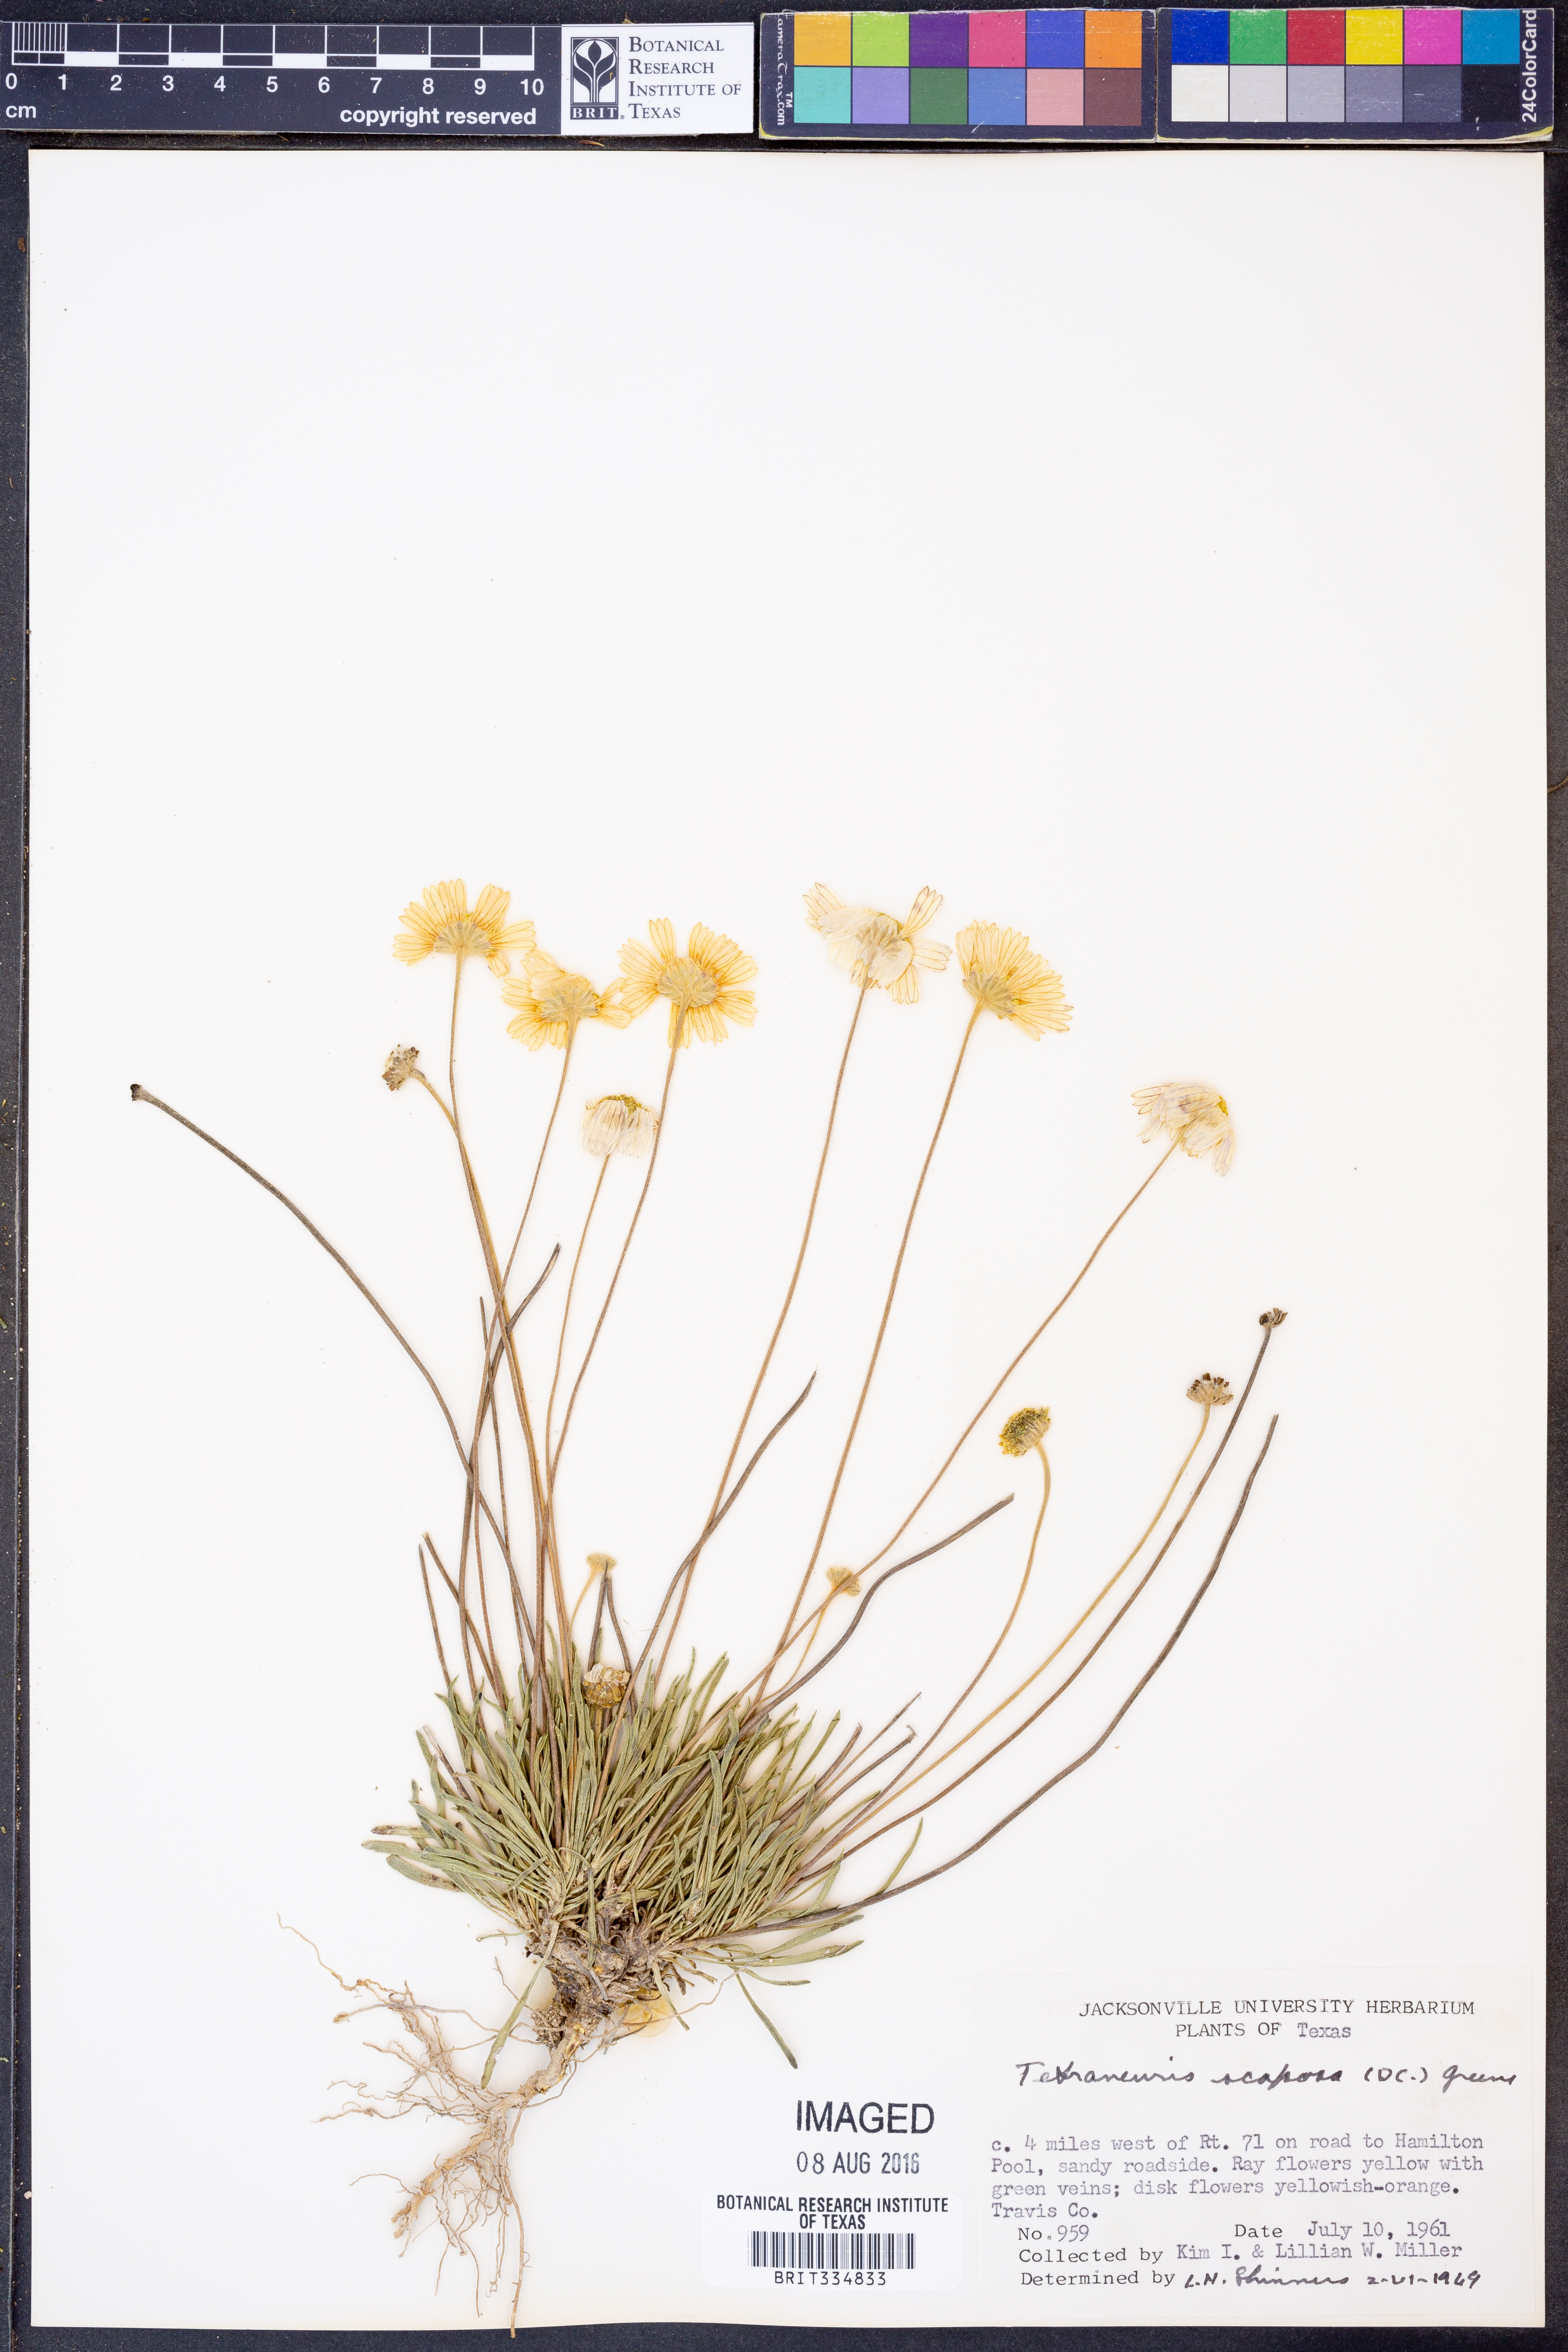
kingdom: Plantae
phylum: Tracheophyta
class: Magnoliopsida
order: Asterales
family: Asteraceae
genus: Tetraneuris
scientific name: Tetraneuris scaposa
